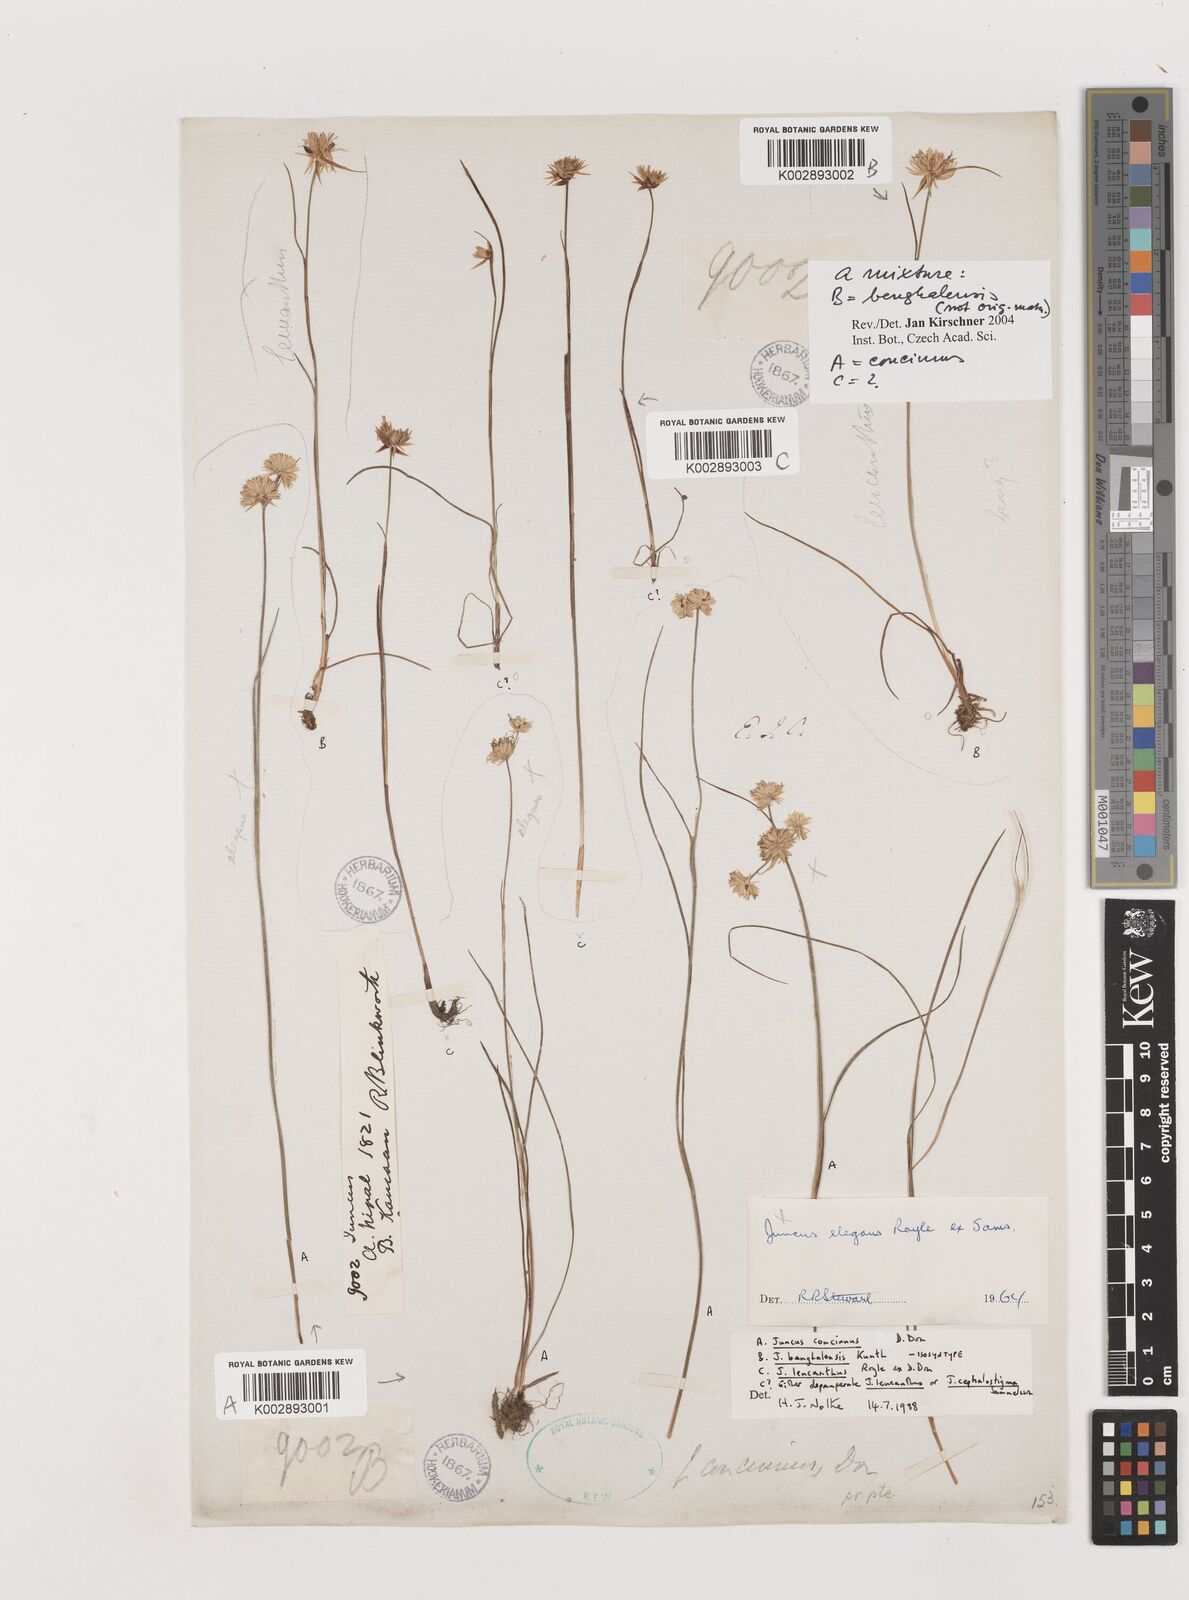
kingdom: Plantae
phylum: Tracheophyta
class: Liliopsida
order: Poales
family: Juncaceae
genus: Juncus
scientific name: Juncus
